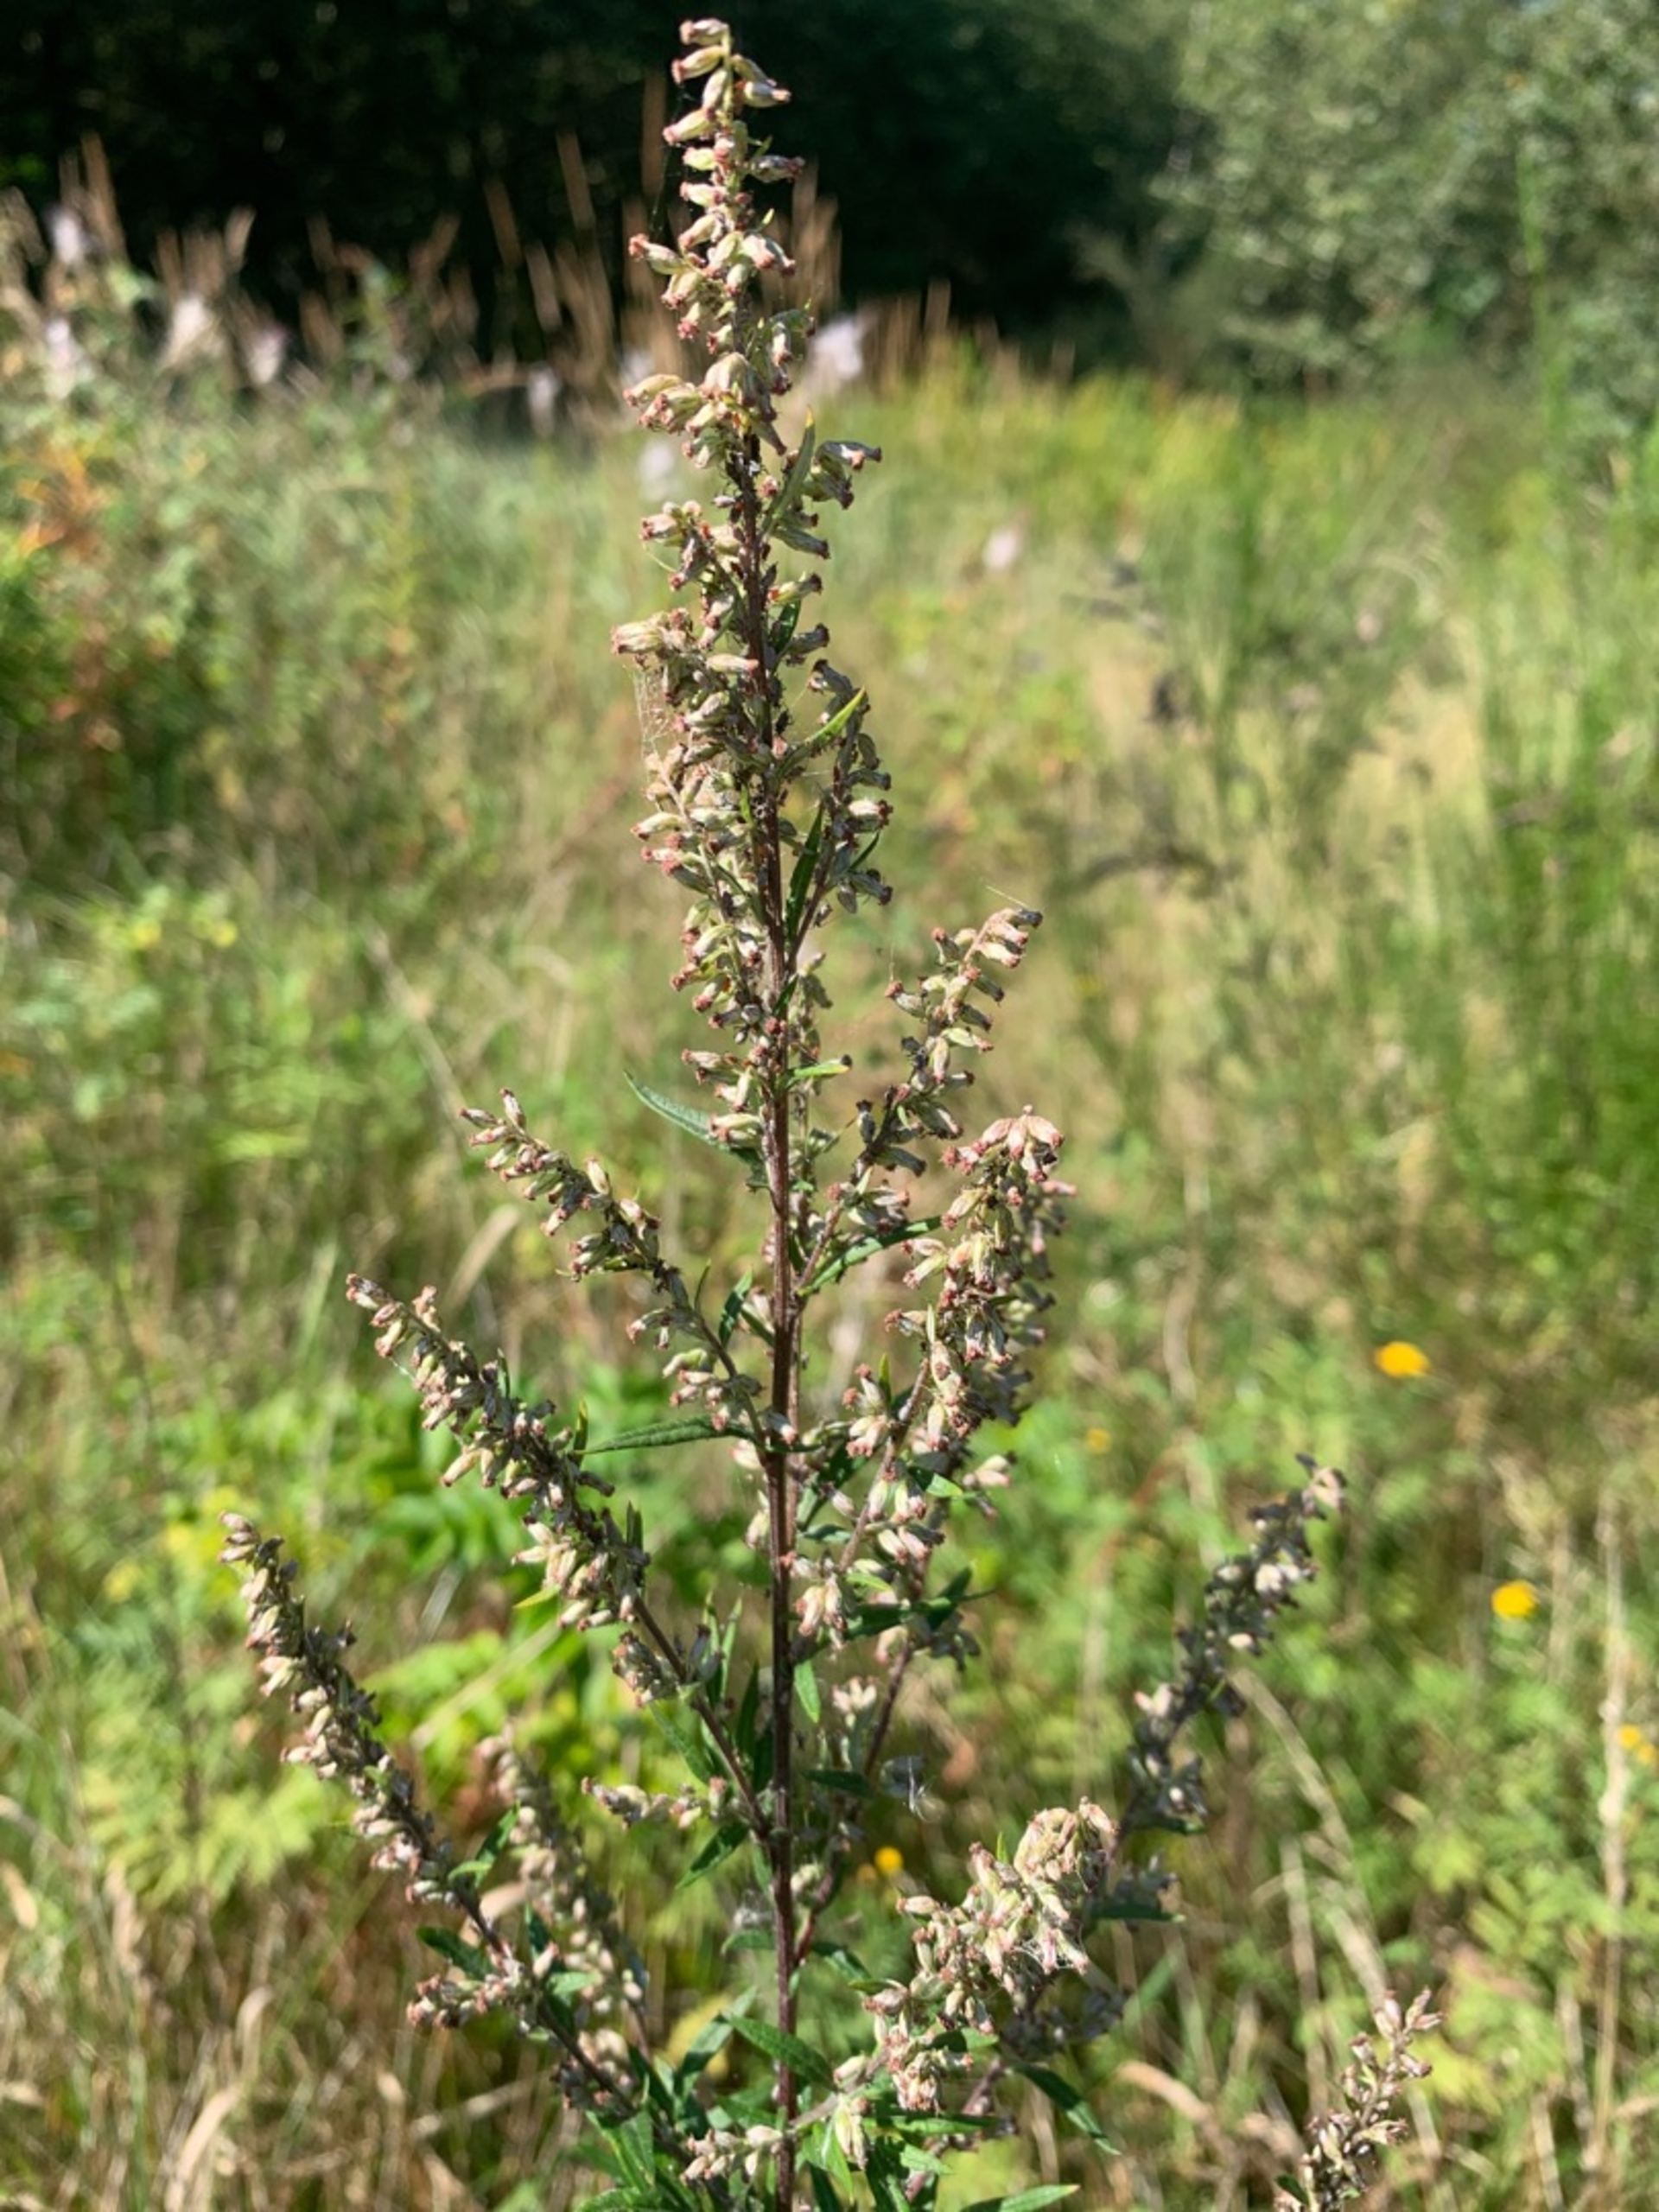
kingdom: Plantae
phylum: Tracheophyta
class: Magnoliopsida
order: Asterales
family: Asteraceae
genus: Artemisia
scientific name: Artemisia vulgaris
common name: Grå-bynke
